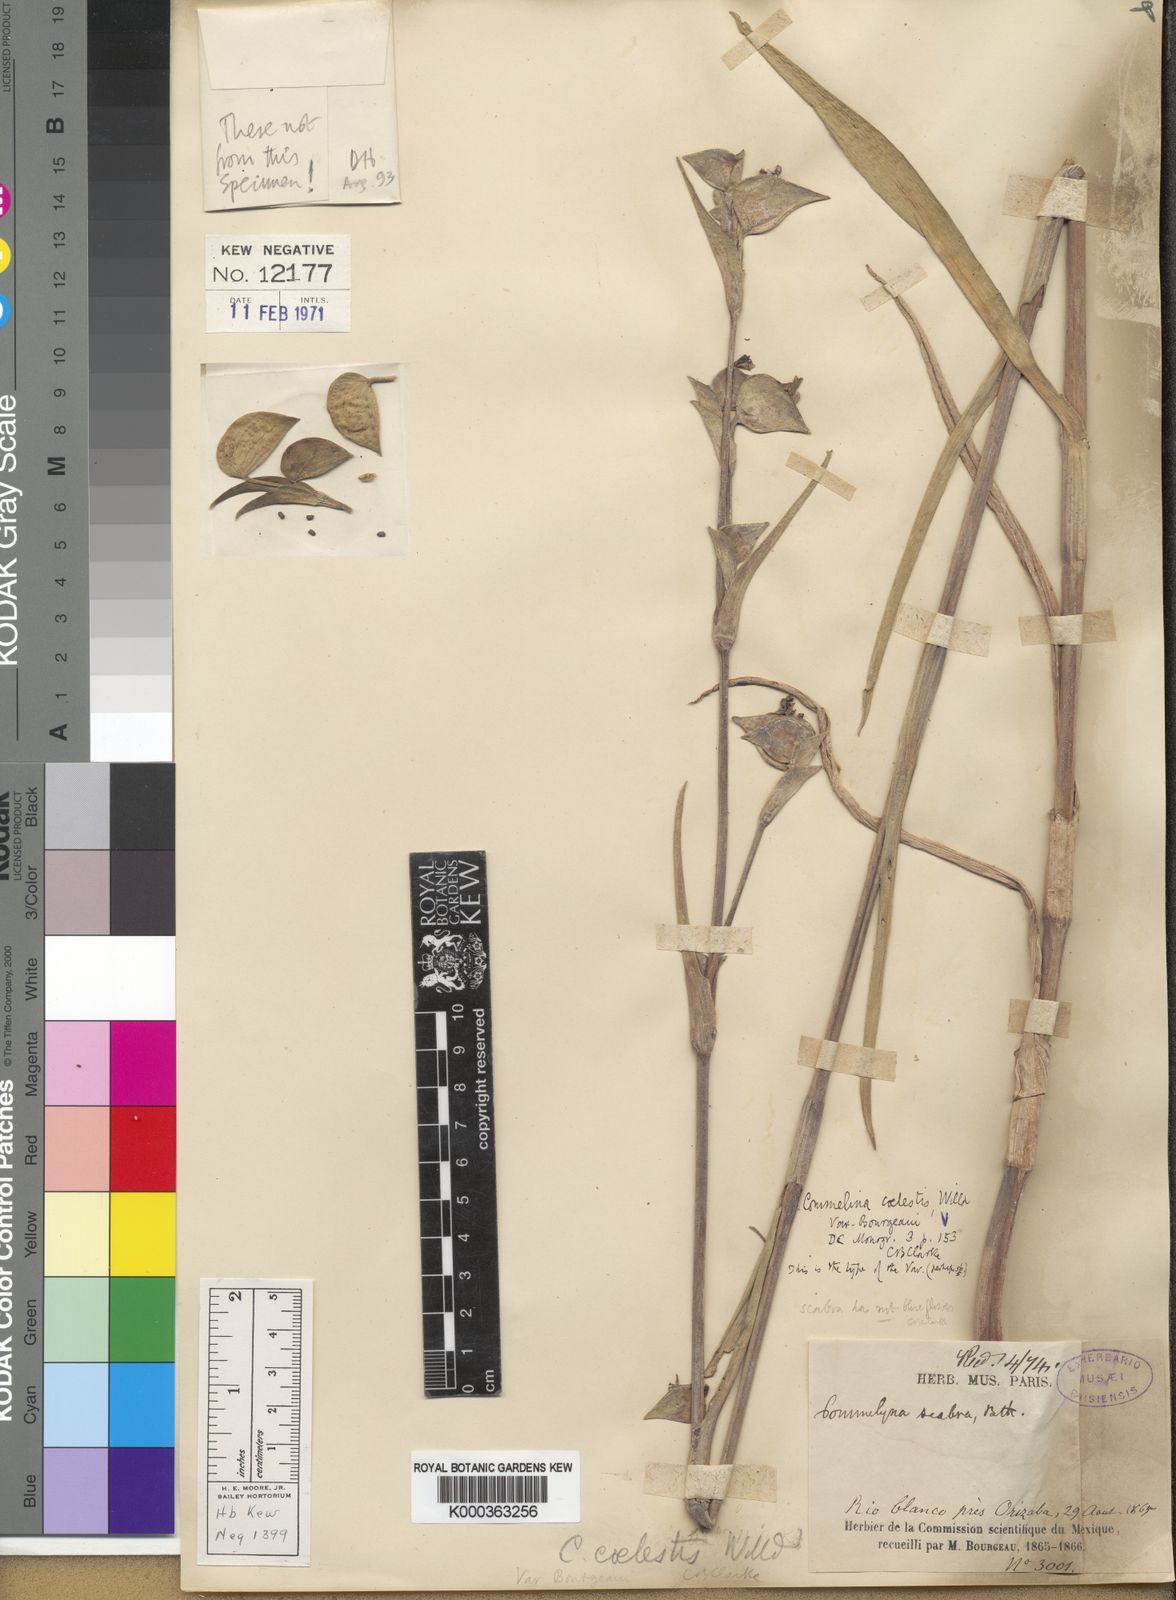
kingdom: Plantae
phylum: Tracheophyta
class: Liliopsida
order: Commelinales
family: Commelinaceae
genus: Commelina
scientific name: Commelina standleyi
